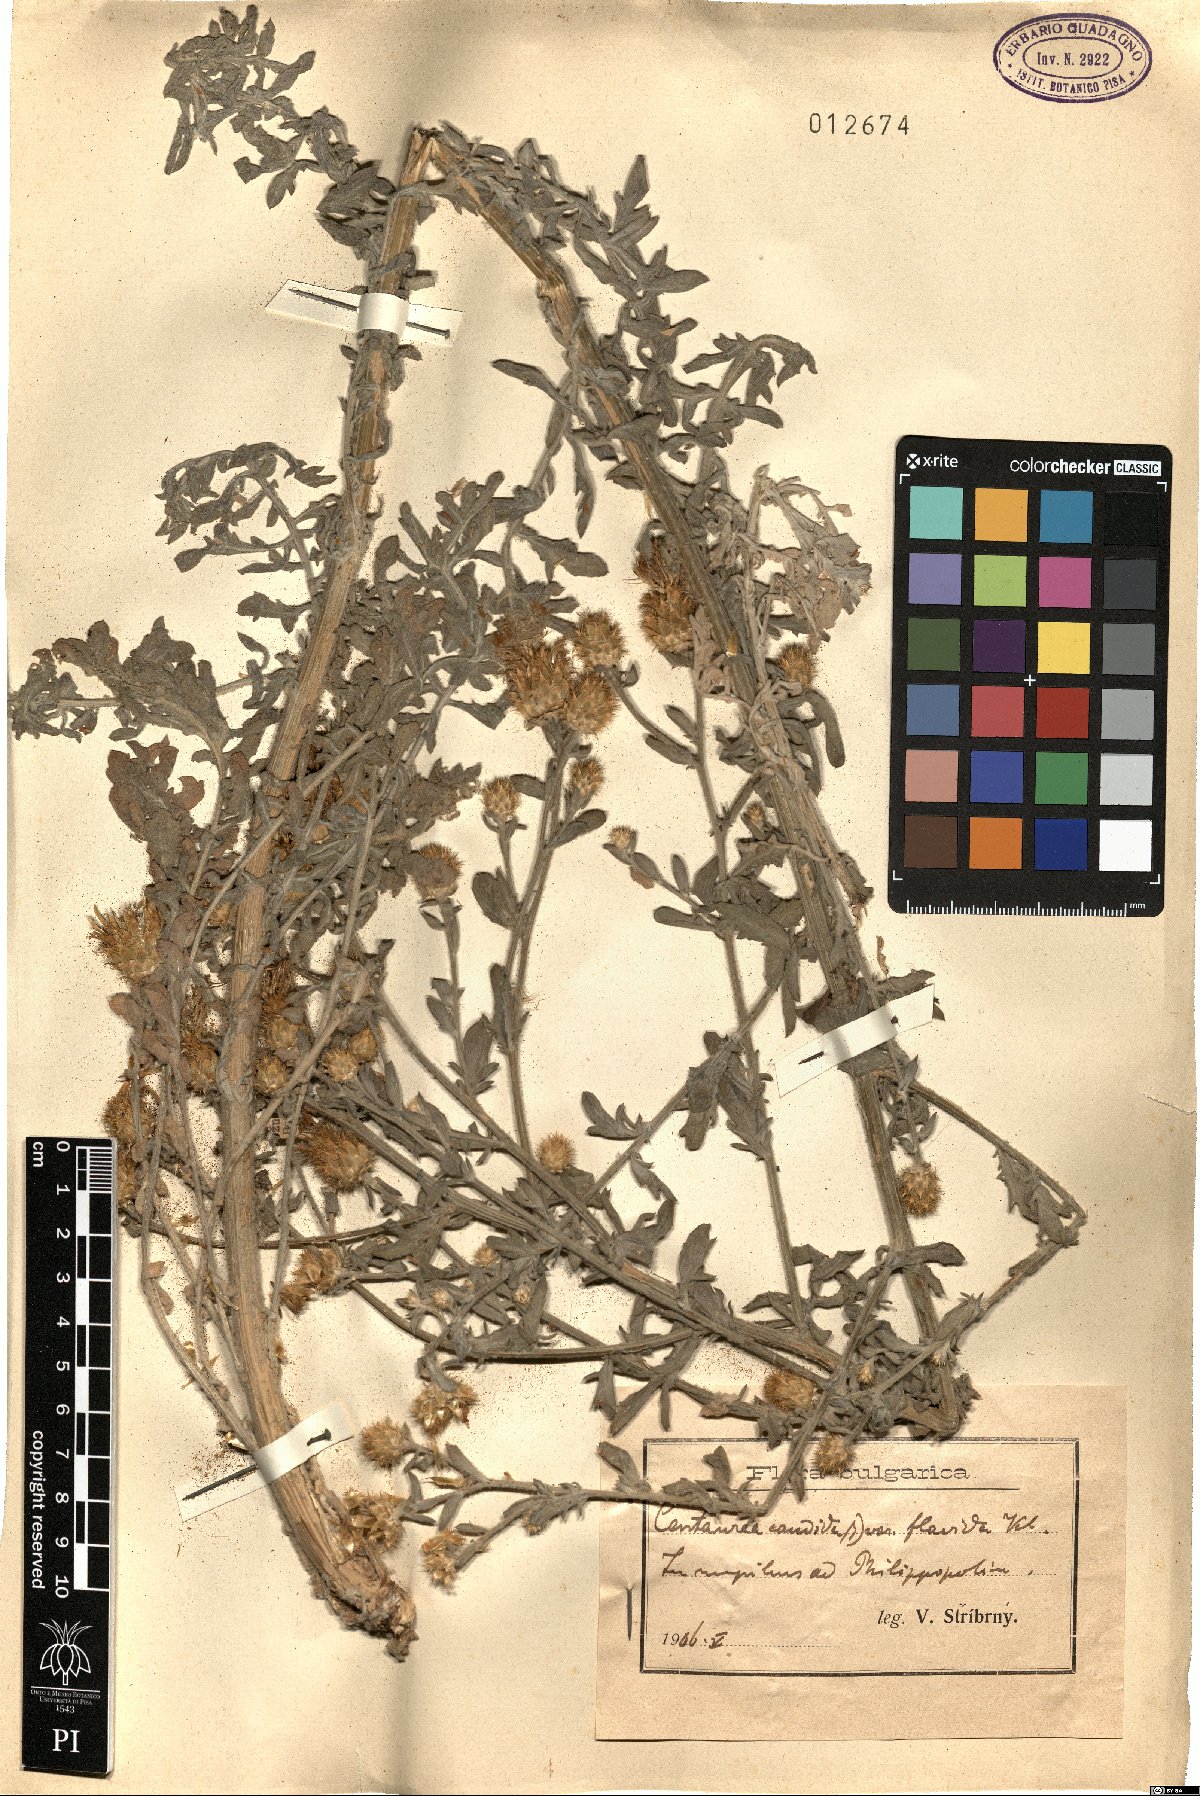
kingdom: Plantae
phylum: Tracheophyta
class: Magnoliopsida
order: Asterales
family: Asteraceae
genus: Centaurea
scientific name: Centaurea affinis
